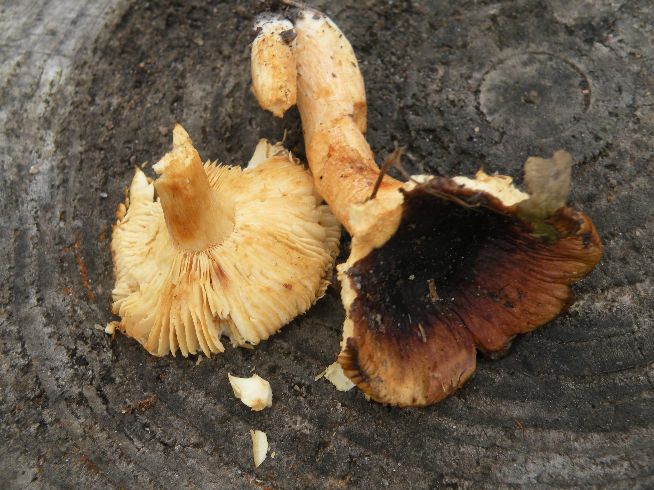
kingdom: Fungi
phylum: Basidiomycota
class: Agaricomycetes
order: Russulales
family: Russulaceae
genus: Russula
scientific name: Russula puellaris
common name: gulstokket skørhat
